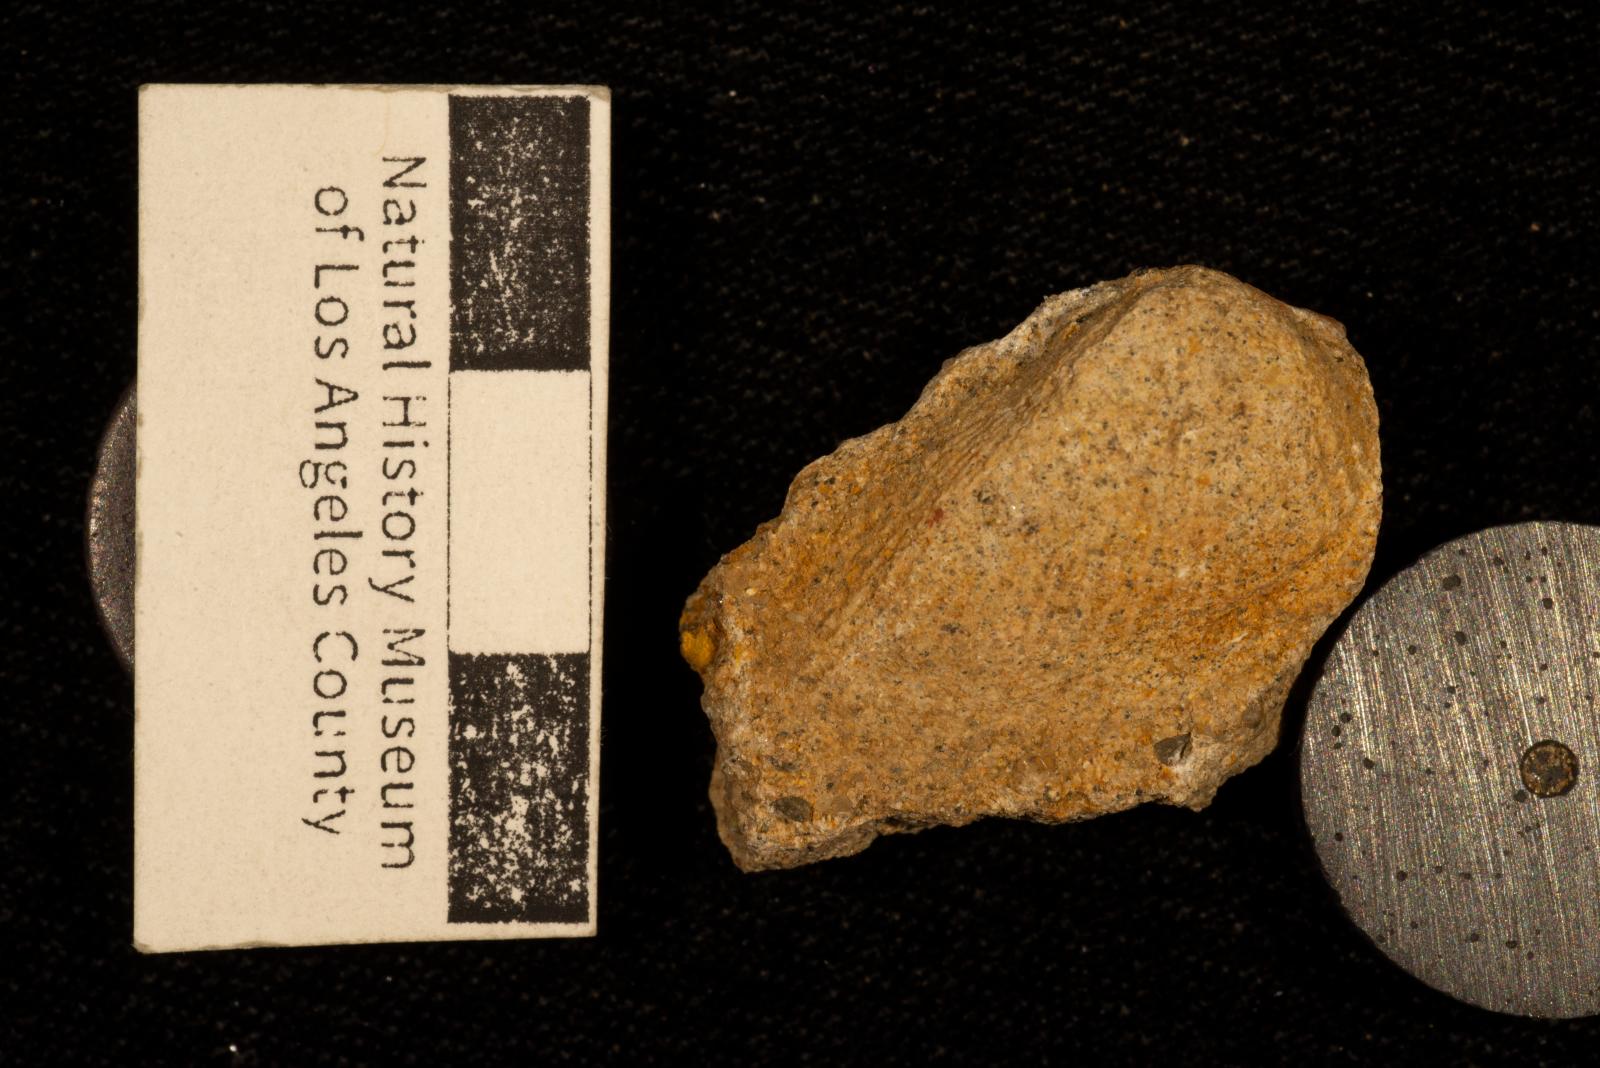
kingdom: Animalia
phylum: Mollusca
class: Bivalvia
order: Arcida
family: Arcidae
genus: Indogrammatodon
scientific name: Indogrammatodon
